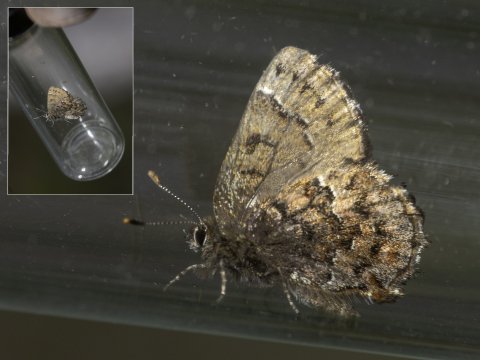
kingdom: Animalia
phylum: Arthropoda
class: Insecta
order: Lepidoptera
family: Lycaenidae
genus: Incisalia
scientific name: Incisalia lanoraieensis
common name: Bog Elfin
